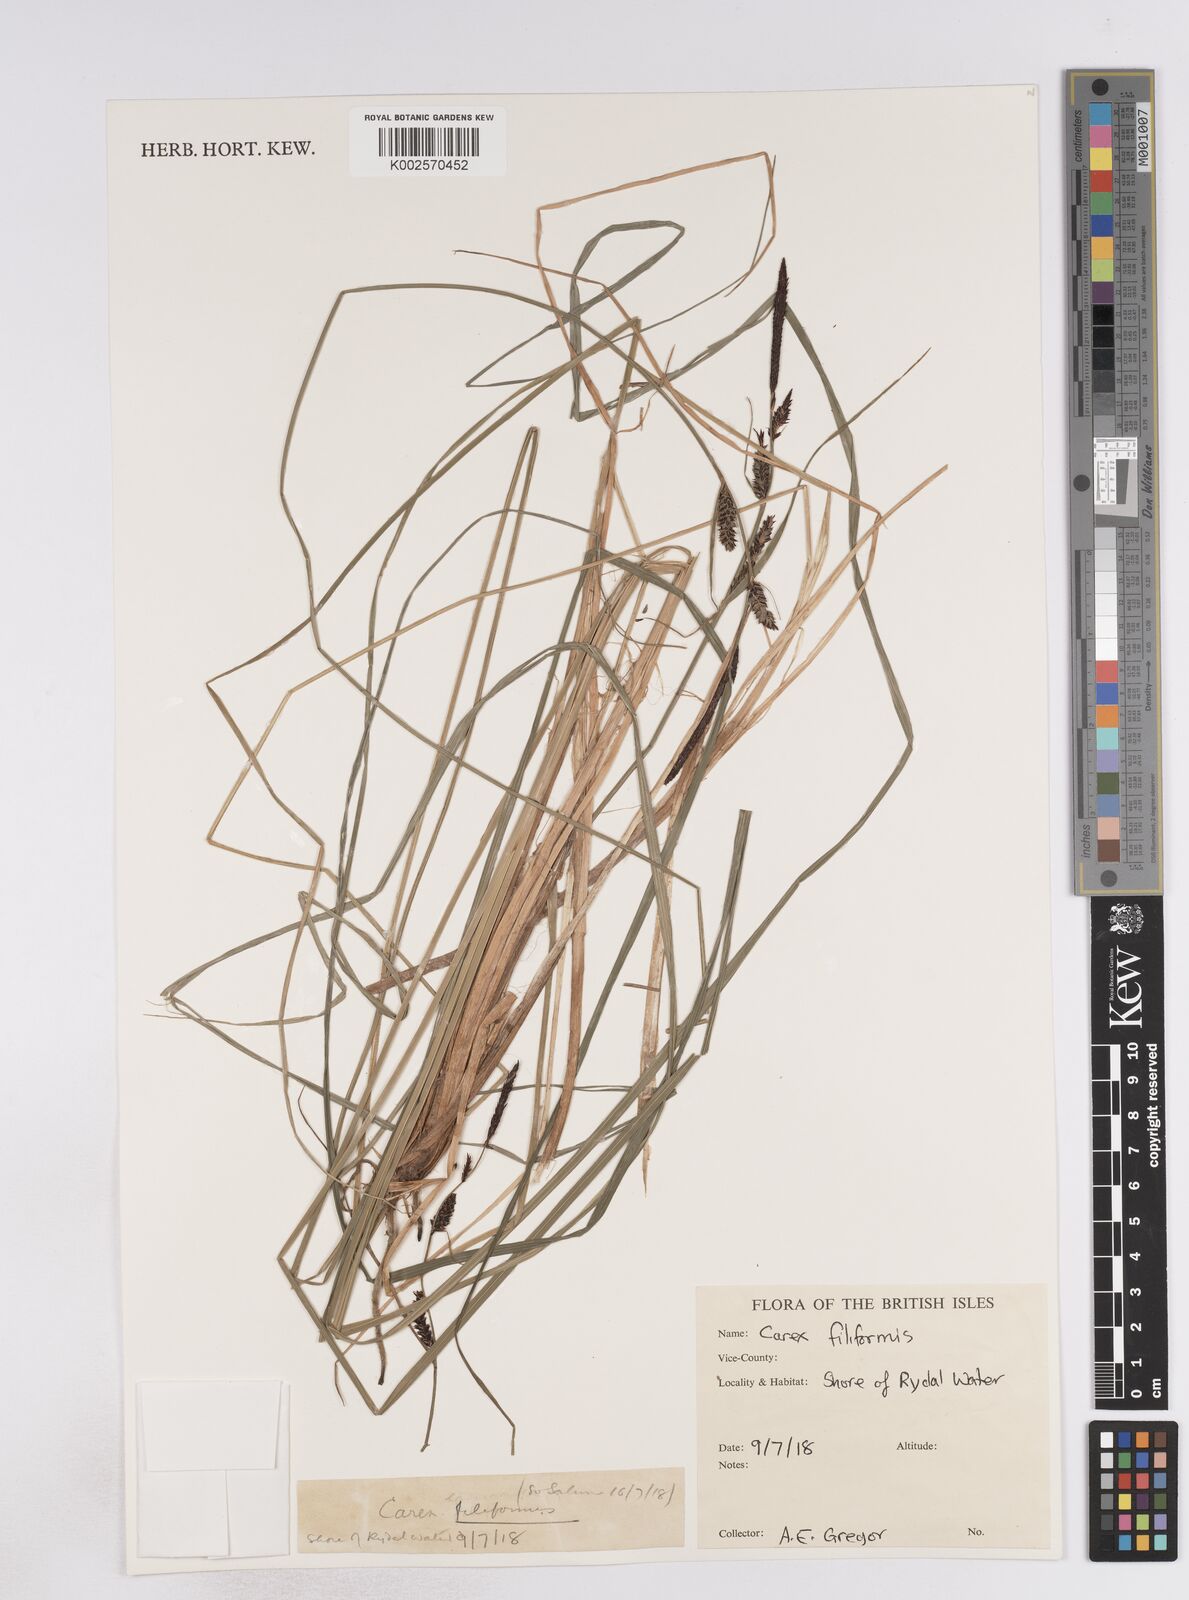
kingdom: Plantae
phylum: Tracheophyta
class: Liliopsida
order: Poales
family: Cyperaceae
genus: Carex
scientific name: Carex montana
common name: Soft-leaved sedge
